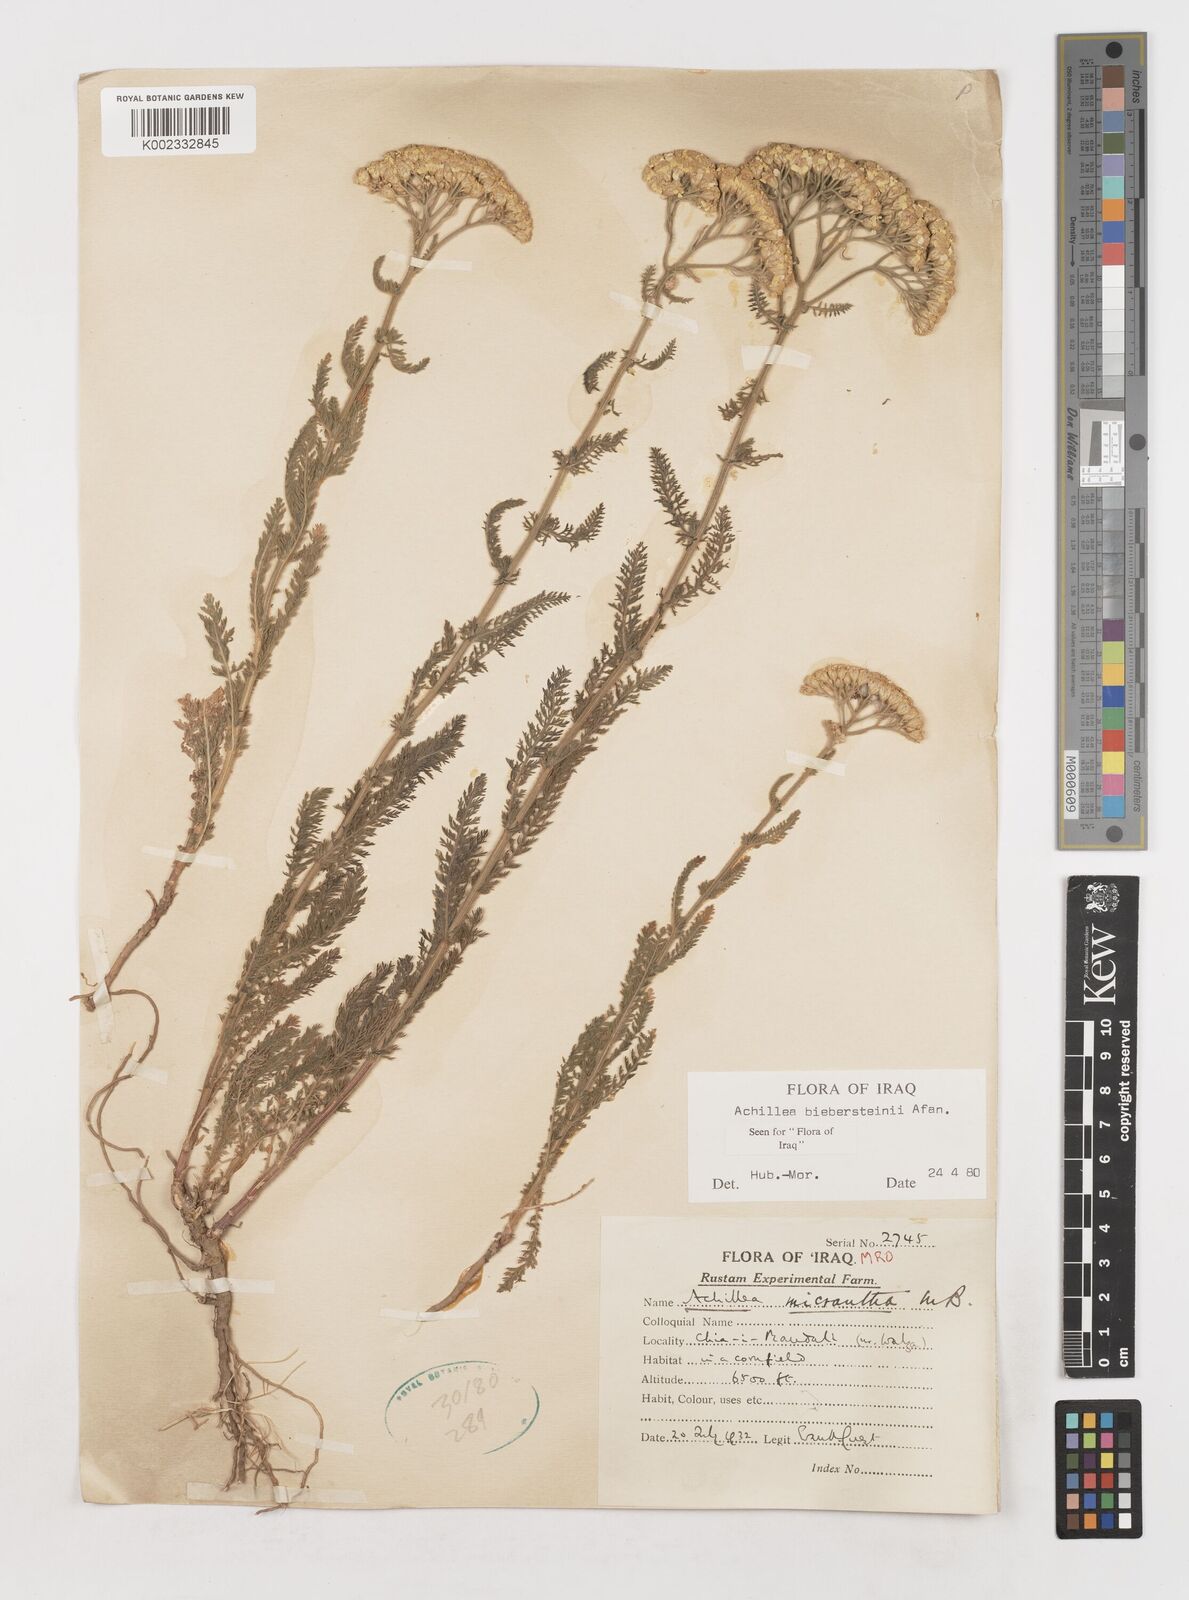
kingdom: Plantae
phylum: Tracheophyta
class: Magnoliopsida
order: Asterales
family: Asteraceae
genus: Achillea
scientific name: Achillea arabica
